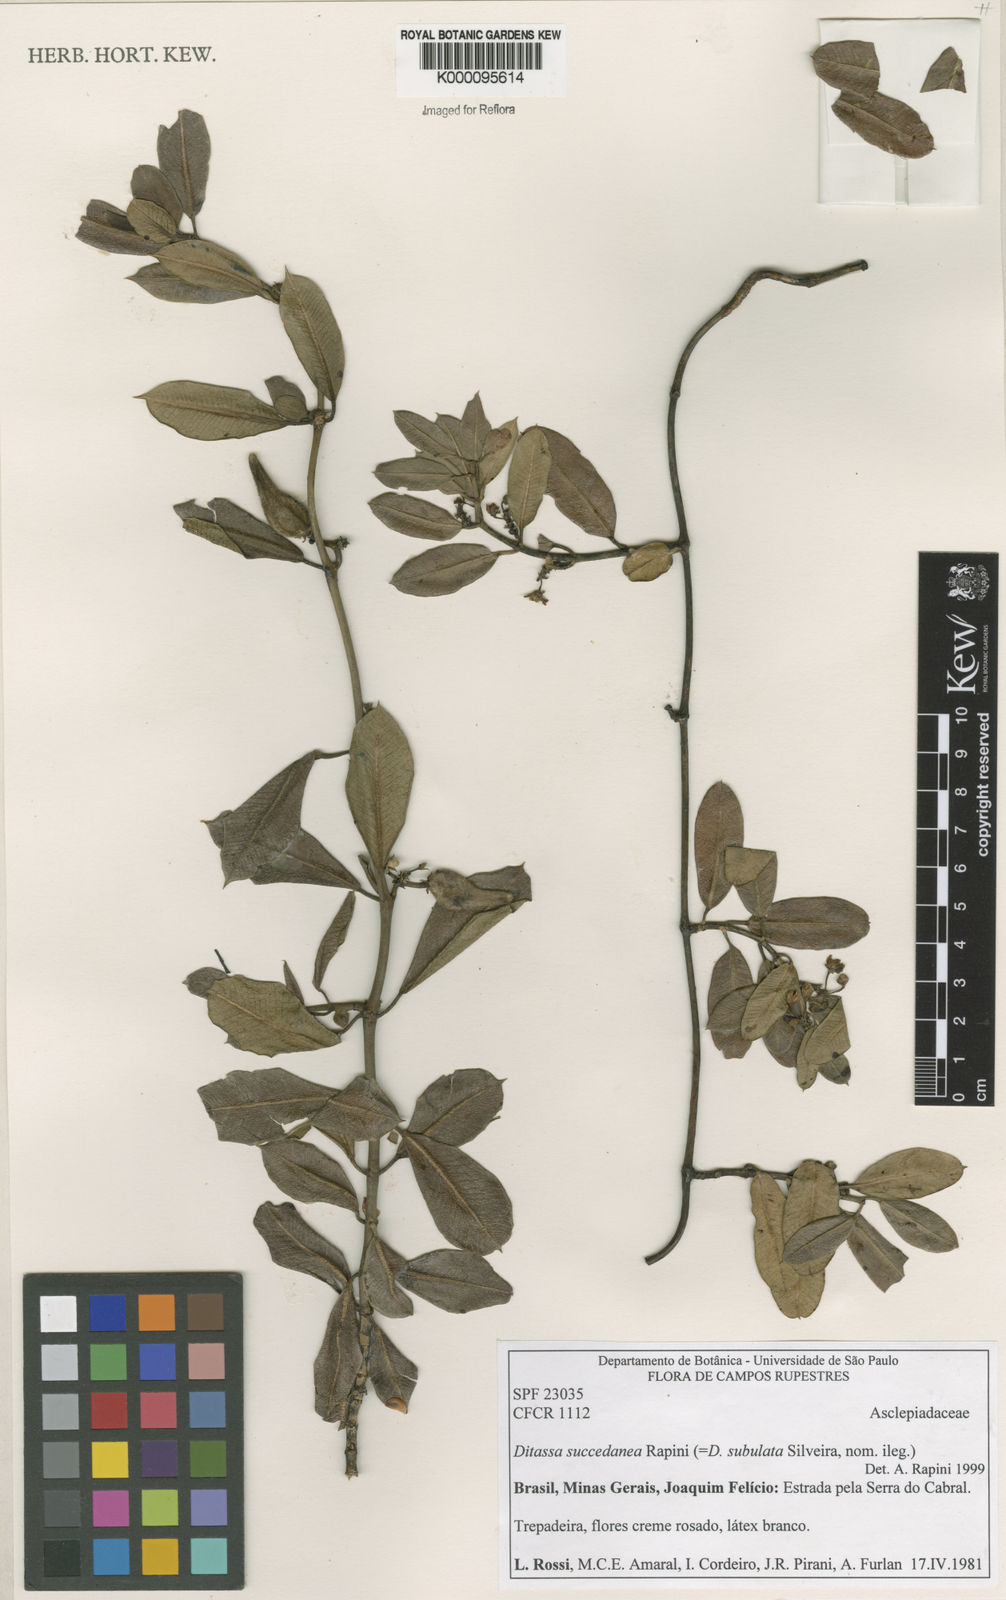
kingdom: Plantae
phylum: Tracheophyta
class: Magnoliopsida
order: Gentianales
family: Apocynaceae
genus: Ditassa
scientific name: Ditassa succedanea
